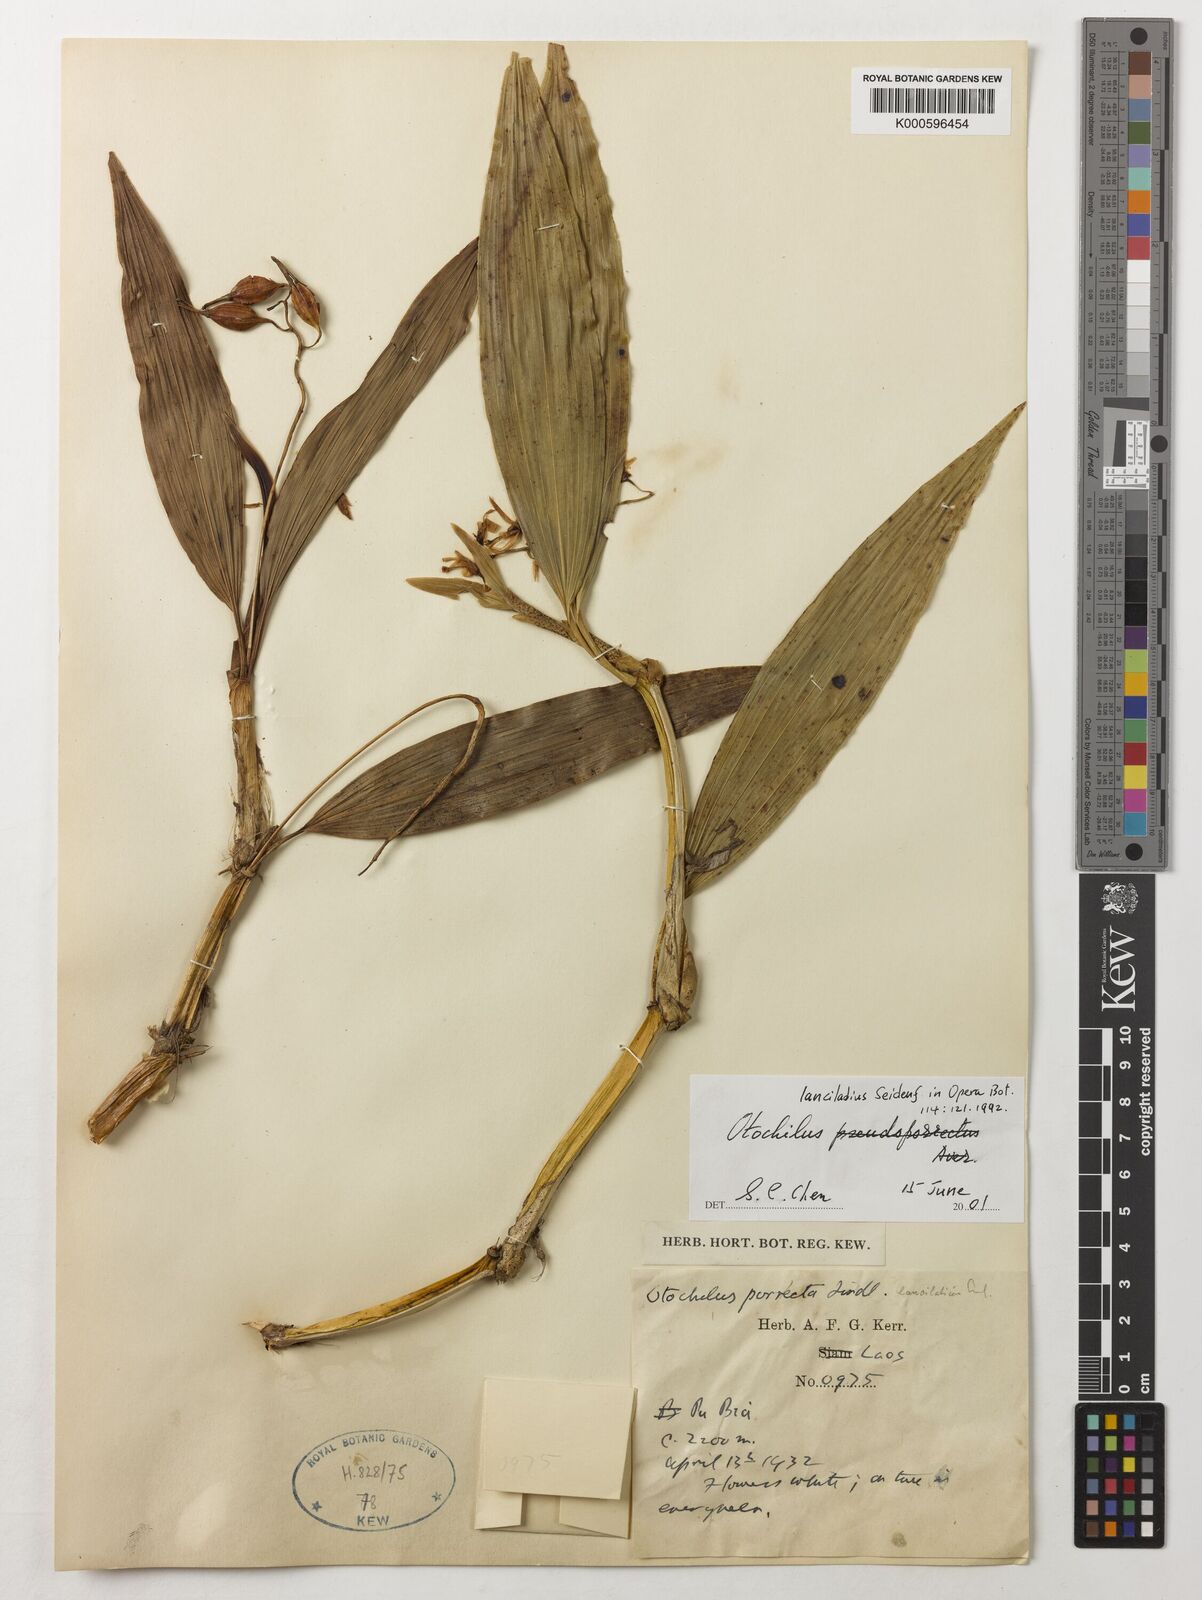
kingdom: Plantae
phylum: Tracheophyta
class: Liliopsida
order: Asparagales
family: Orchidaceae
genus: Coelogyne
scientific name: Coelogyne
